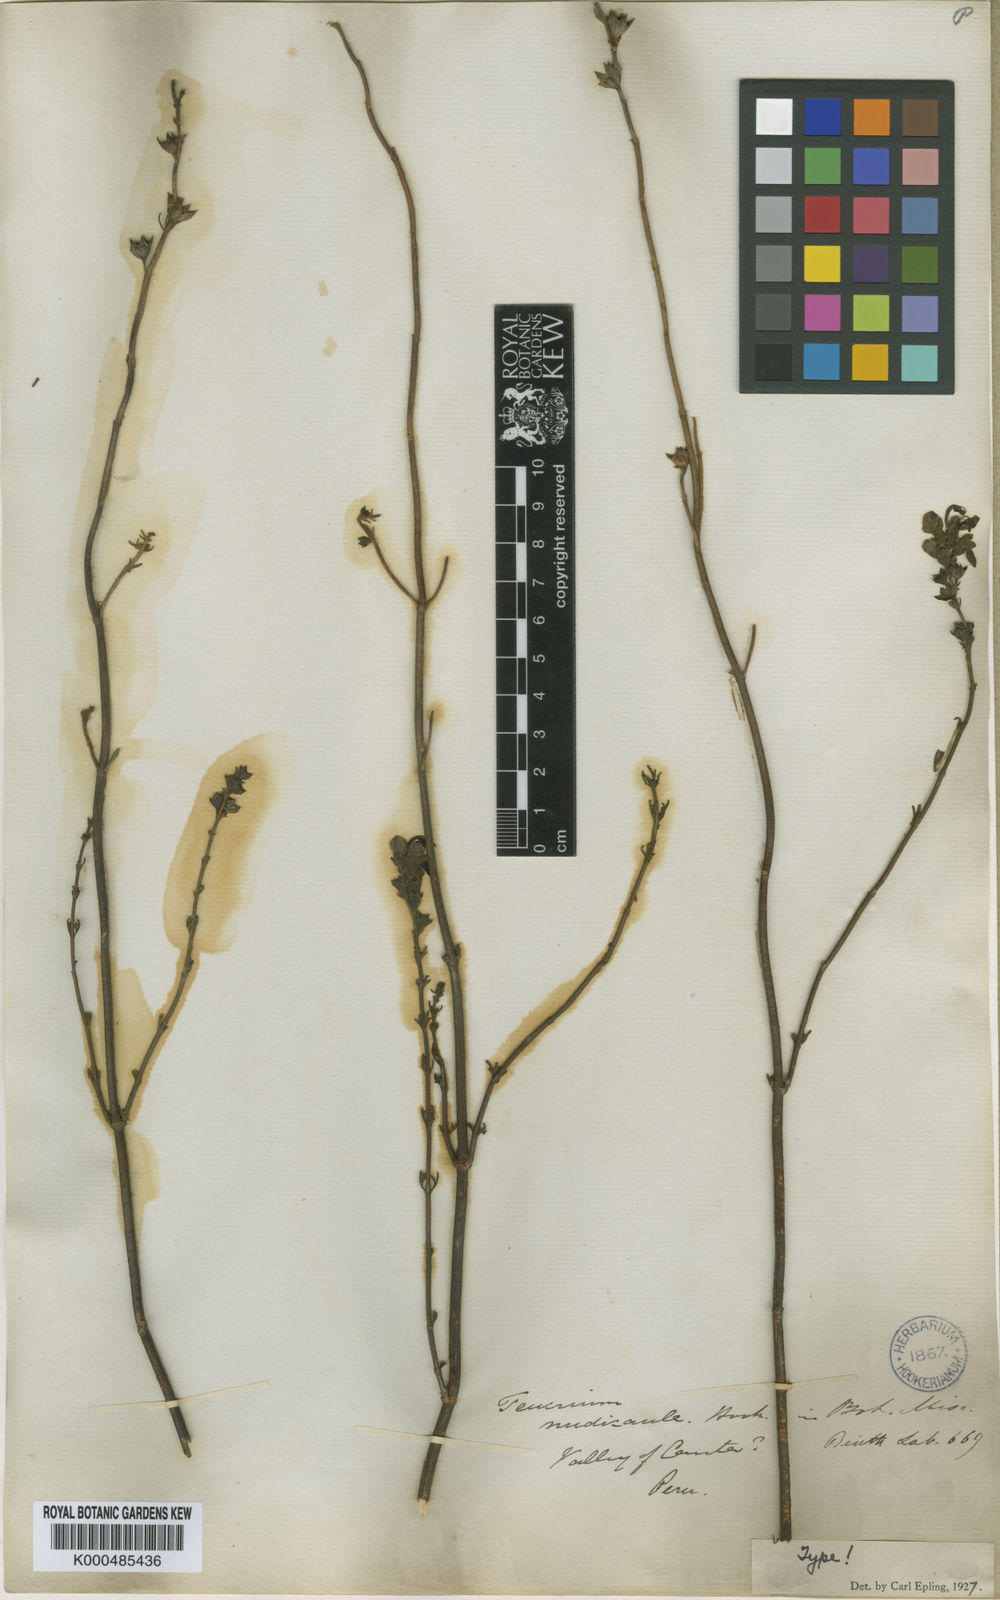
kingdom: Plantae
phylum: Tracheophyta
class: Magnoliopsida
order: Lamiales
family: Lamiaceae
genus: Teucrium
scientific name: Teucrium nudicaule
